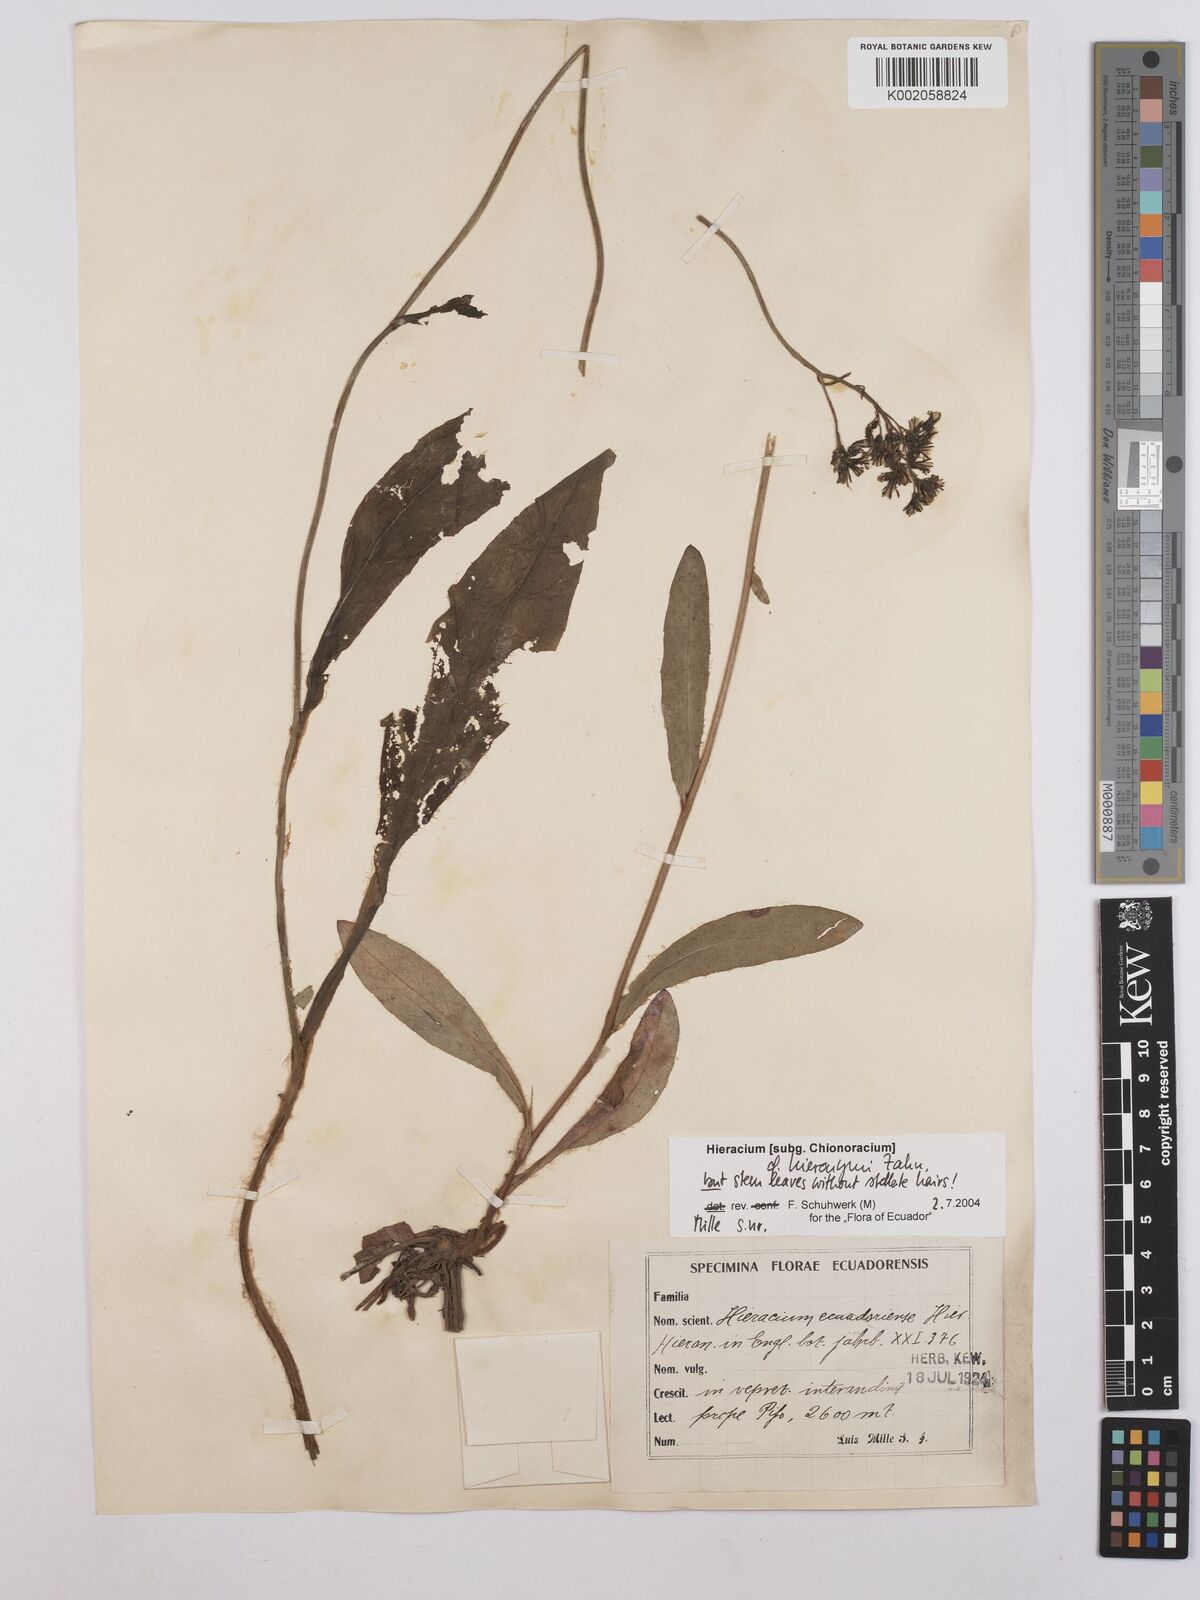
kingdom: Plantae
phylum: Tracheophyta
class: Magnoliopsida
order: Asterales
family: Asteraceae
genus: Hieracium
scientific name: Hieracium hieronymi
